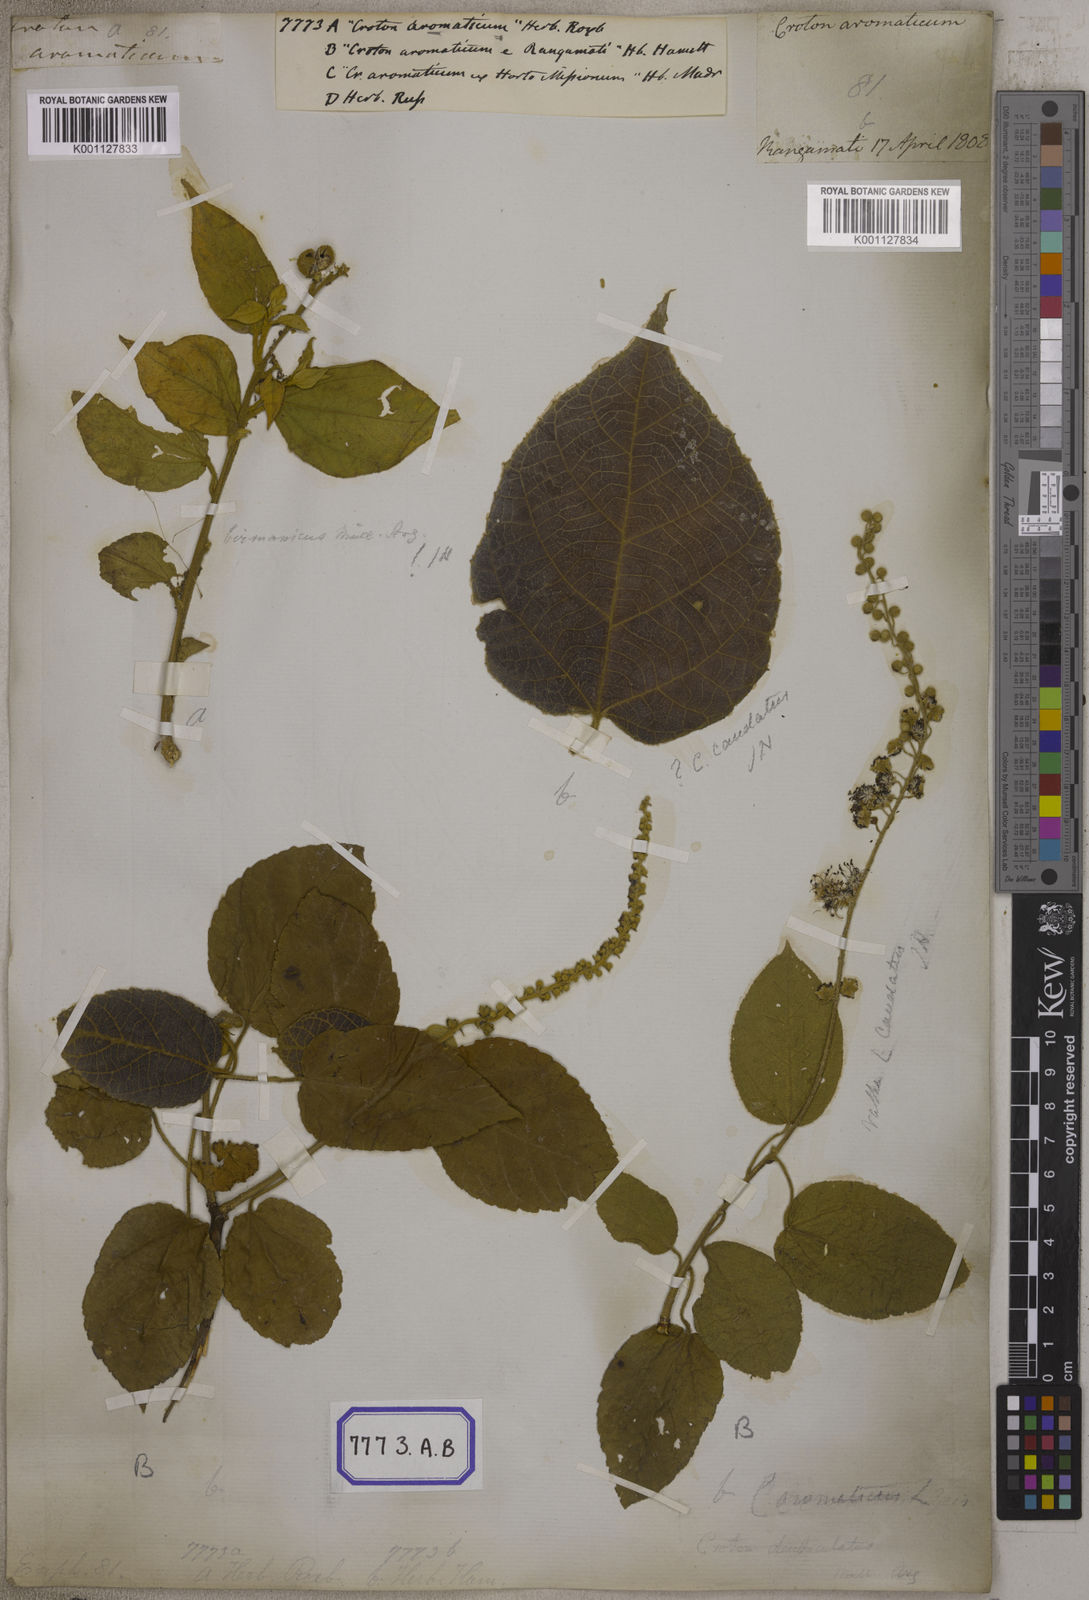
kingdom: Plantae
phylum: Tracheophyta
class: Magnoliopsida
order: Malpighiales
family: Euphorbiaceae
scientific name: Euphorbiaceae
